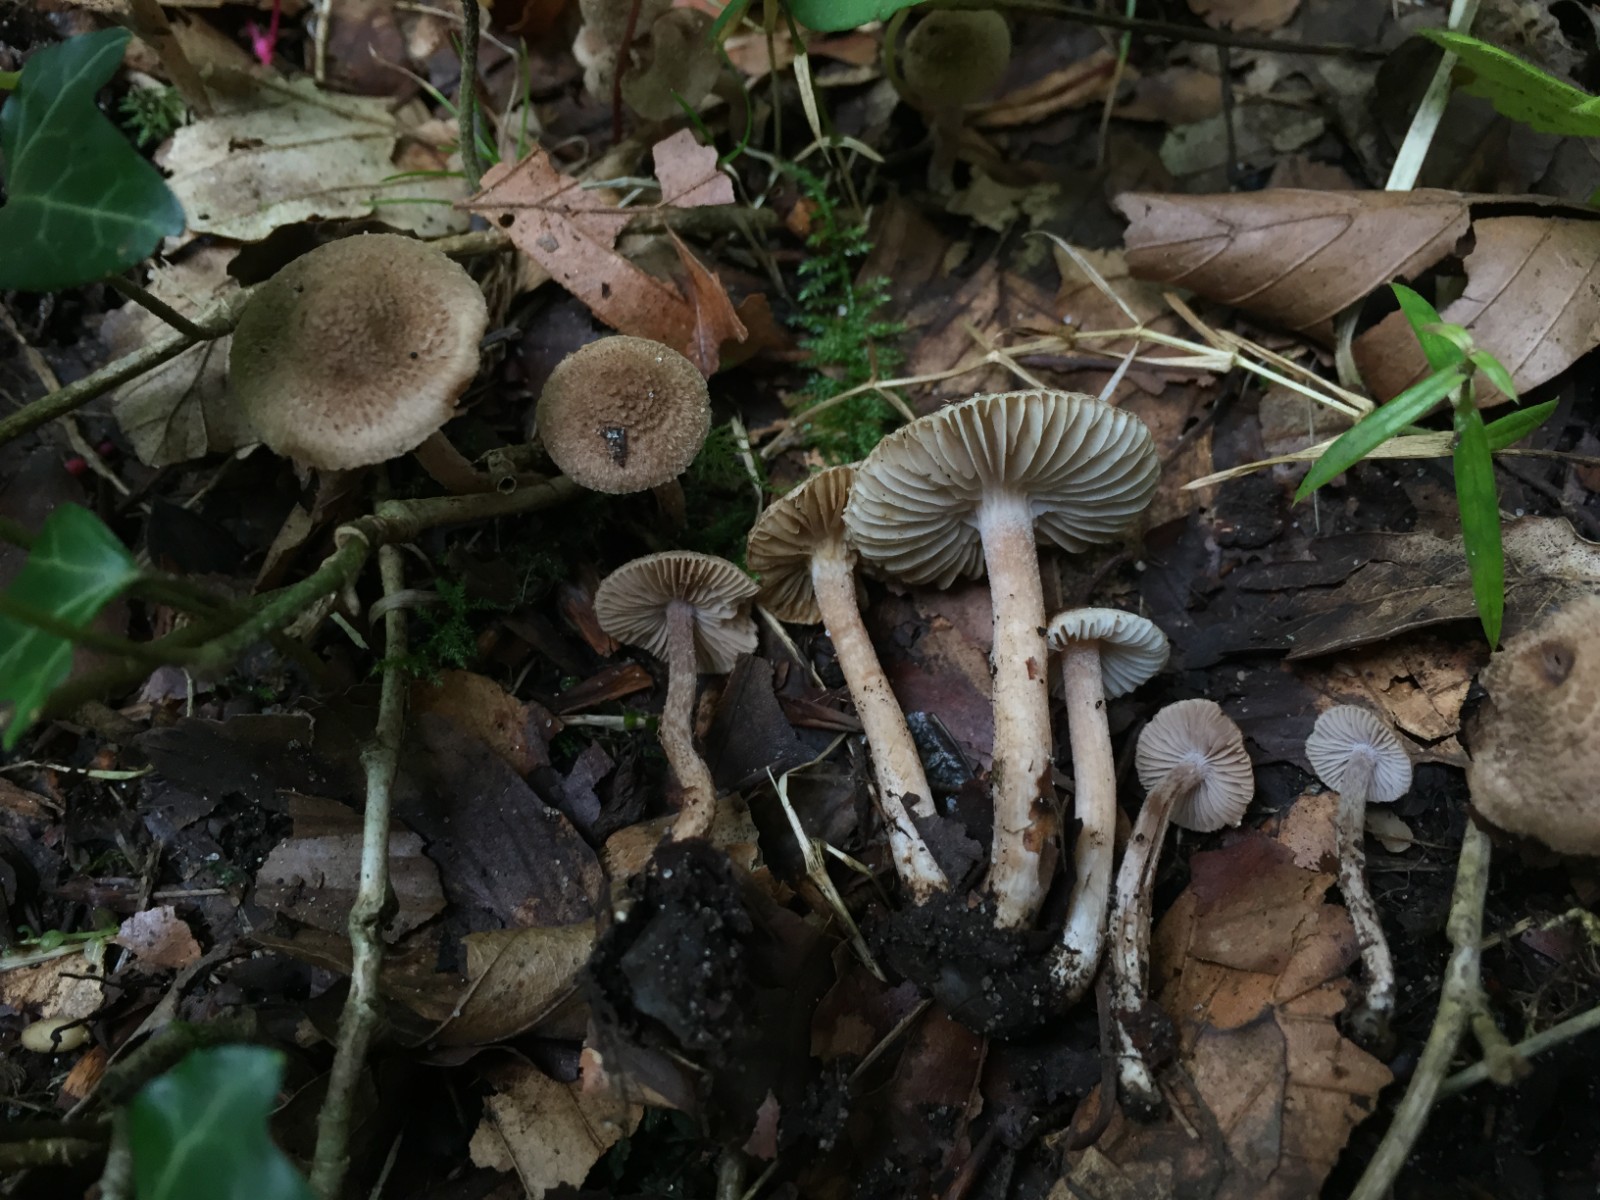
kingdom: Fungi
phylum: Basidiomycota
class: Agaricomycetes
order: Agaricales
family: Inocybaceae
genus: Inocybe
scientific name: Inocybe griseolilacina
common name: lillagrå trævlhat
